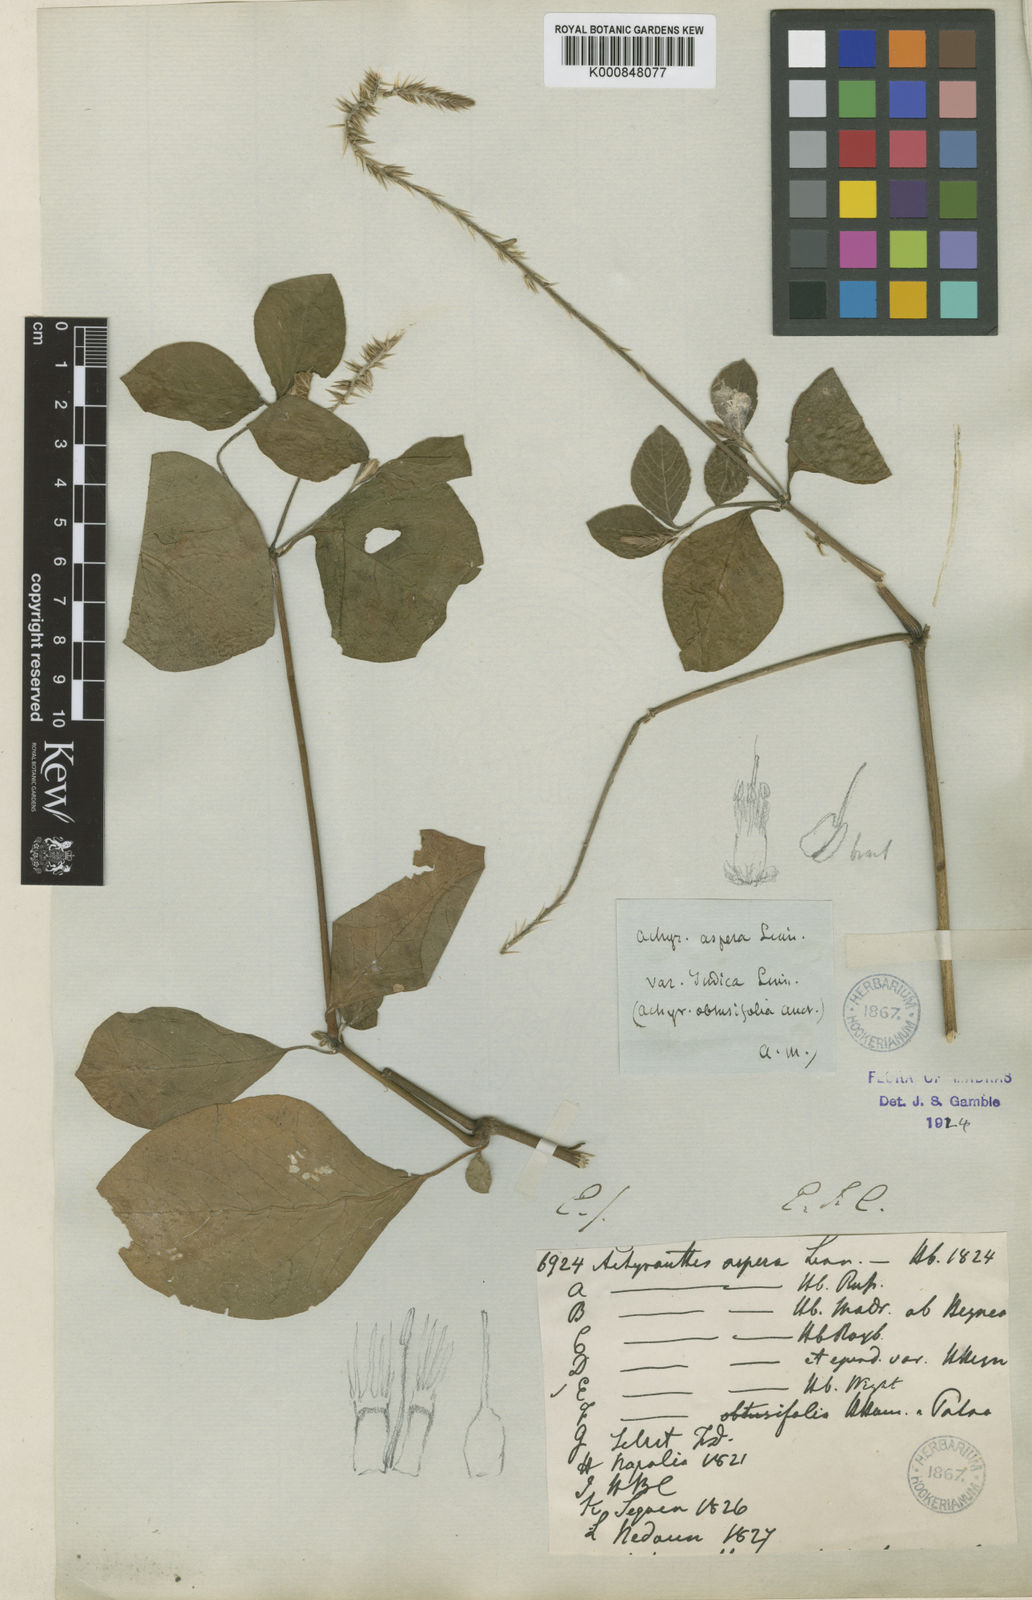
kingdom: Plantae
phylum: Tracheophyta
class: Magnoliopsida
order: Caryophyllales
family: Amaranthaceae
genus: Achyranthes
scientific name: Achyranthes aspera
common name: Devil's horsewhip
